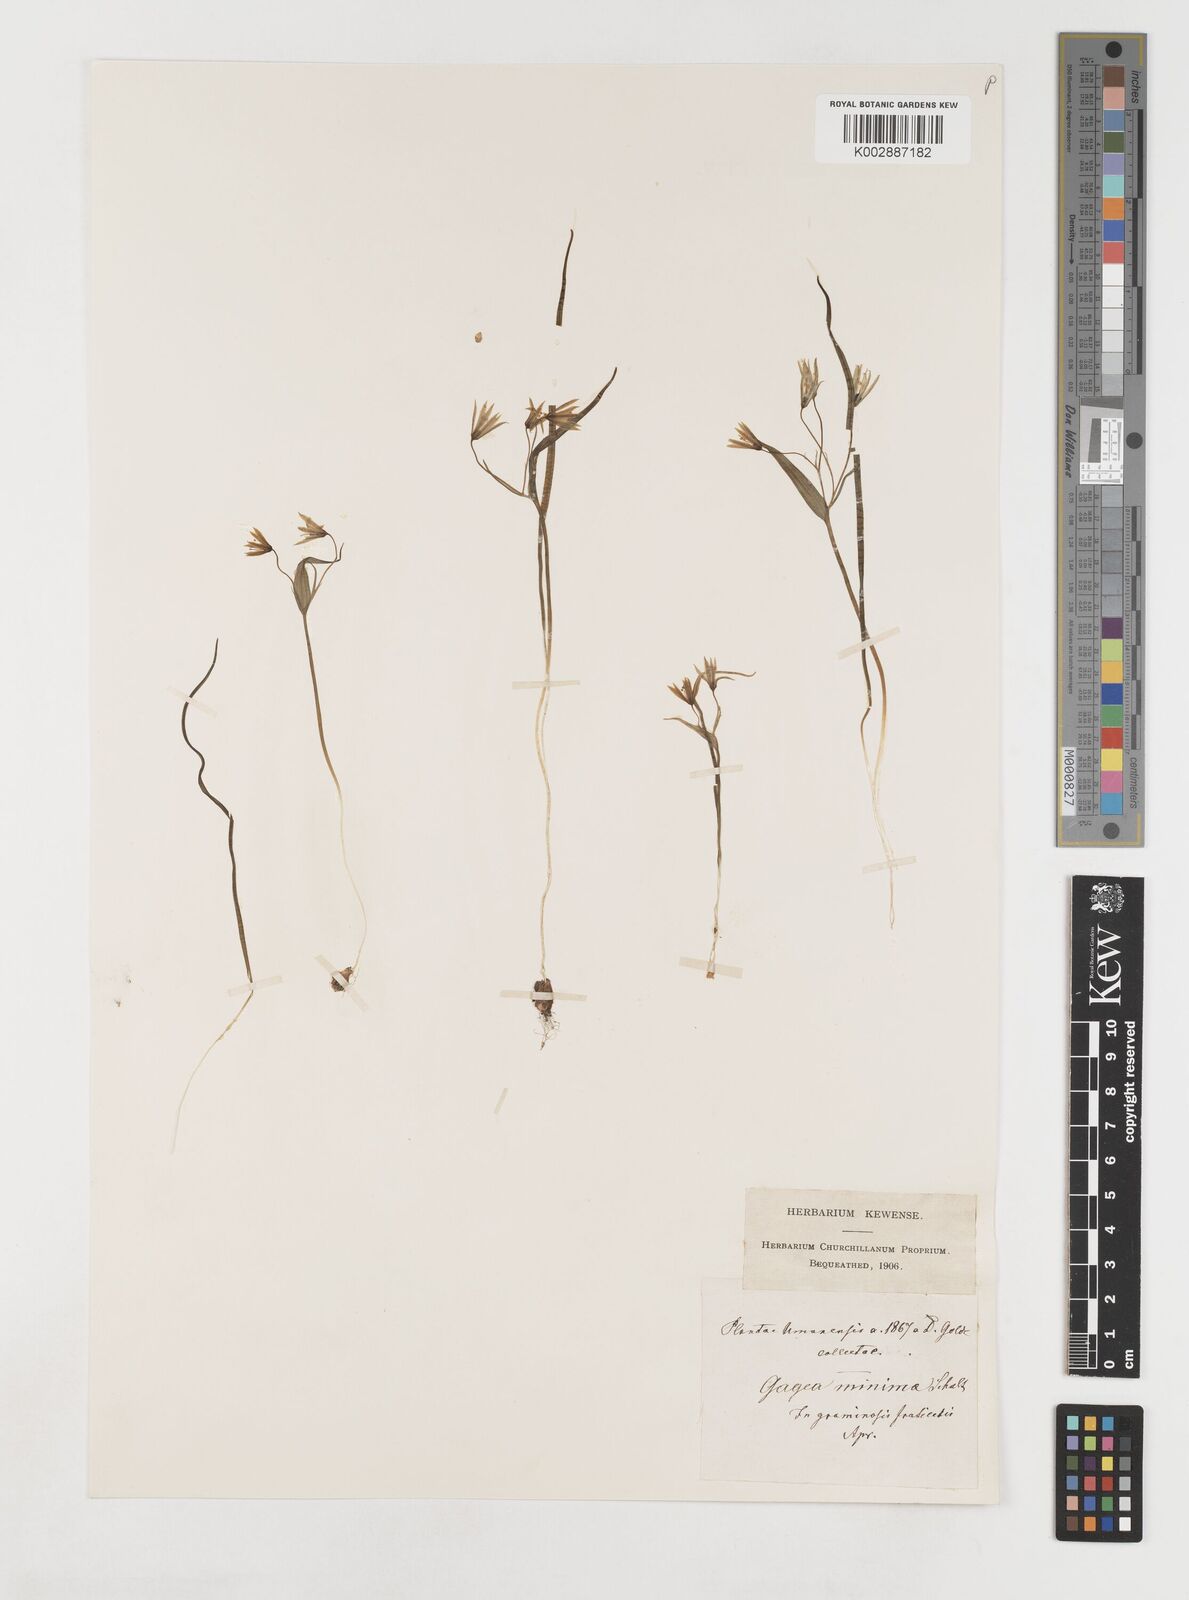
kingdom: Plantae
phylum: Tracheophyta
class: Liliopsida
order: Liliales
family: Liliaceae
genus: Gagea
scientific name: Gagea minima
